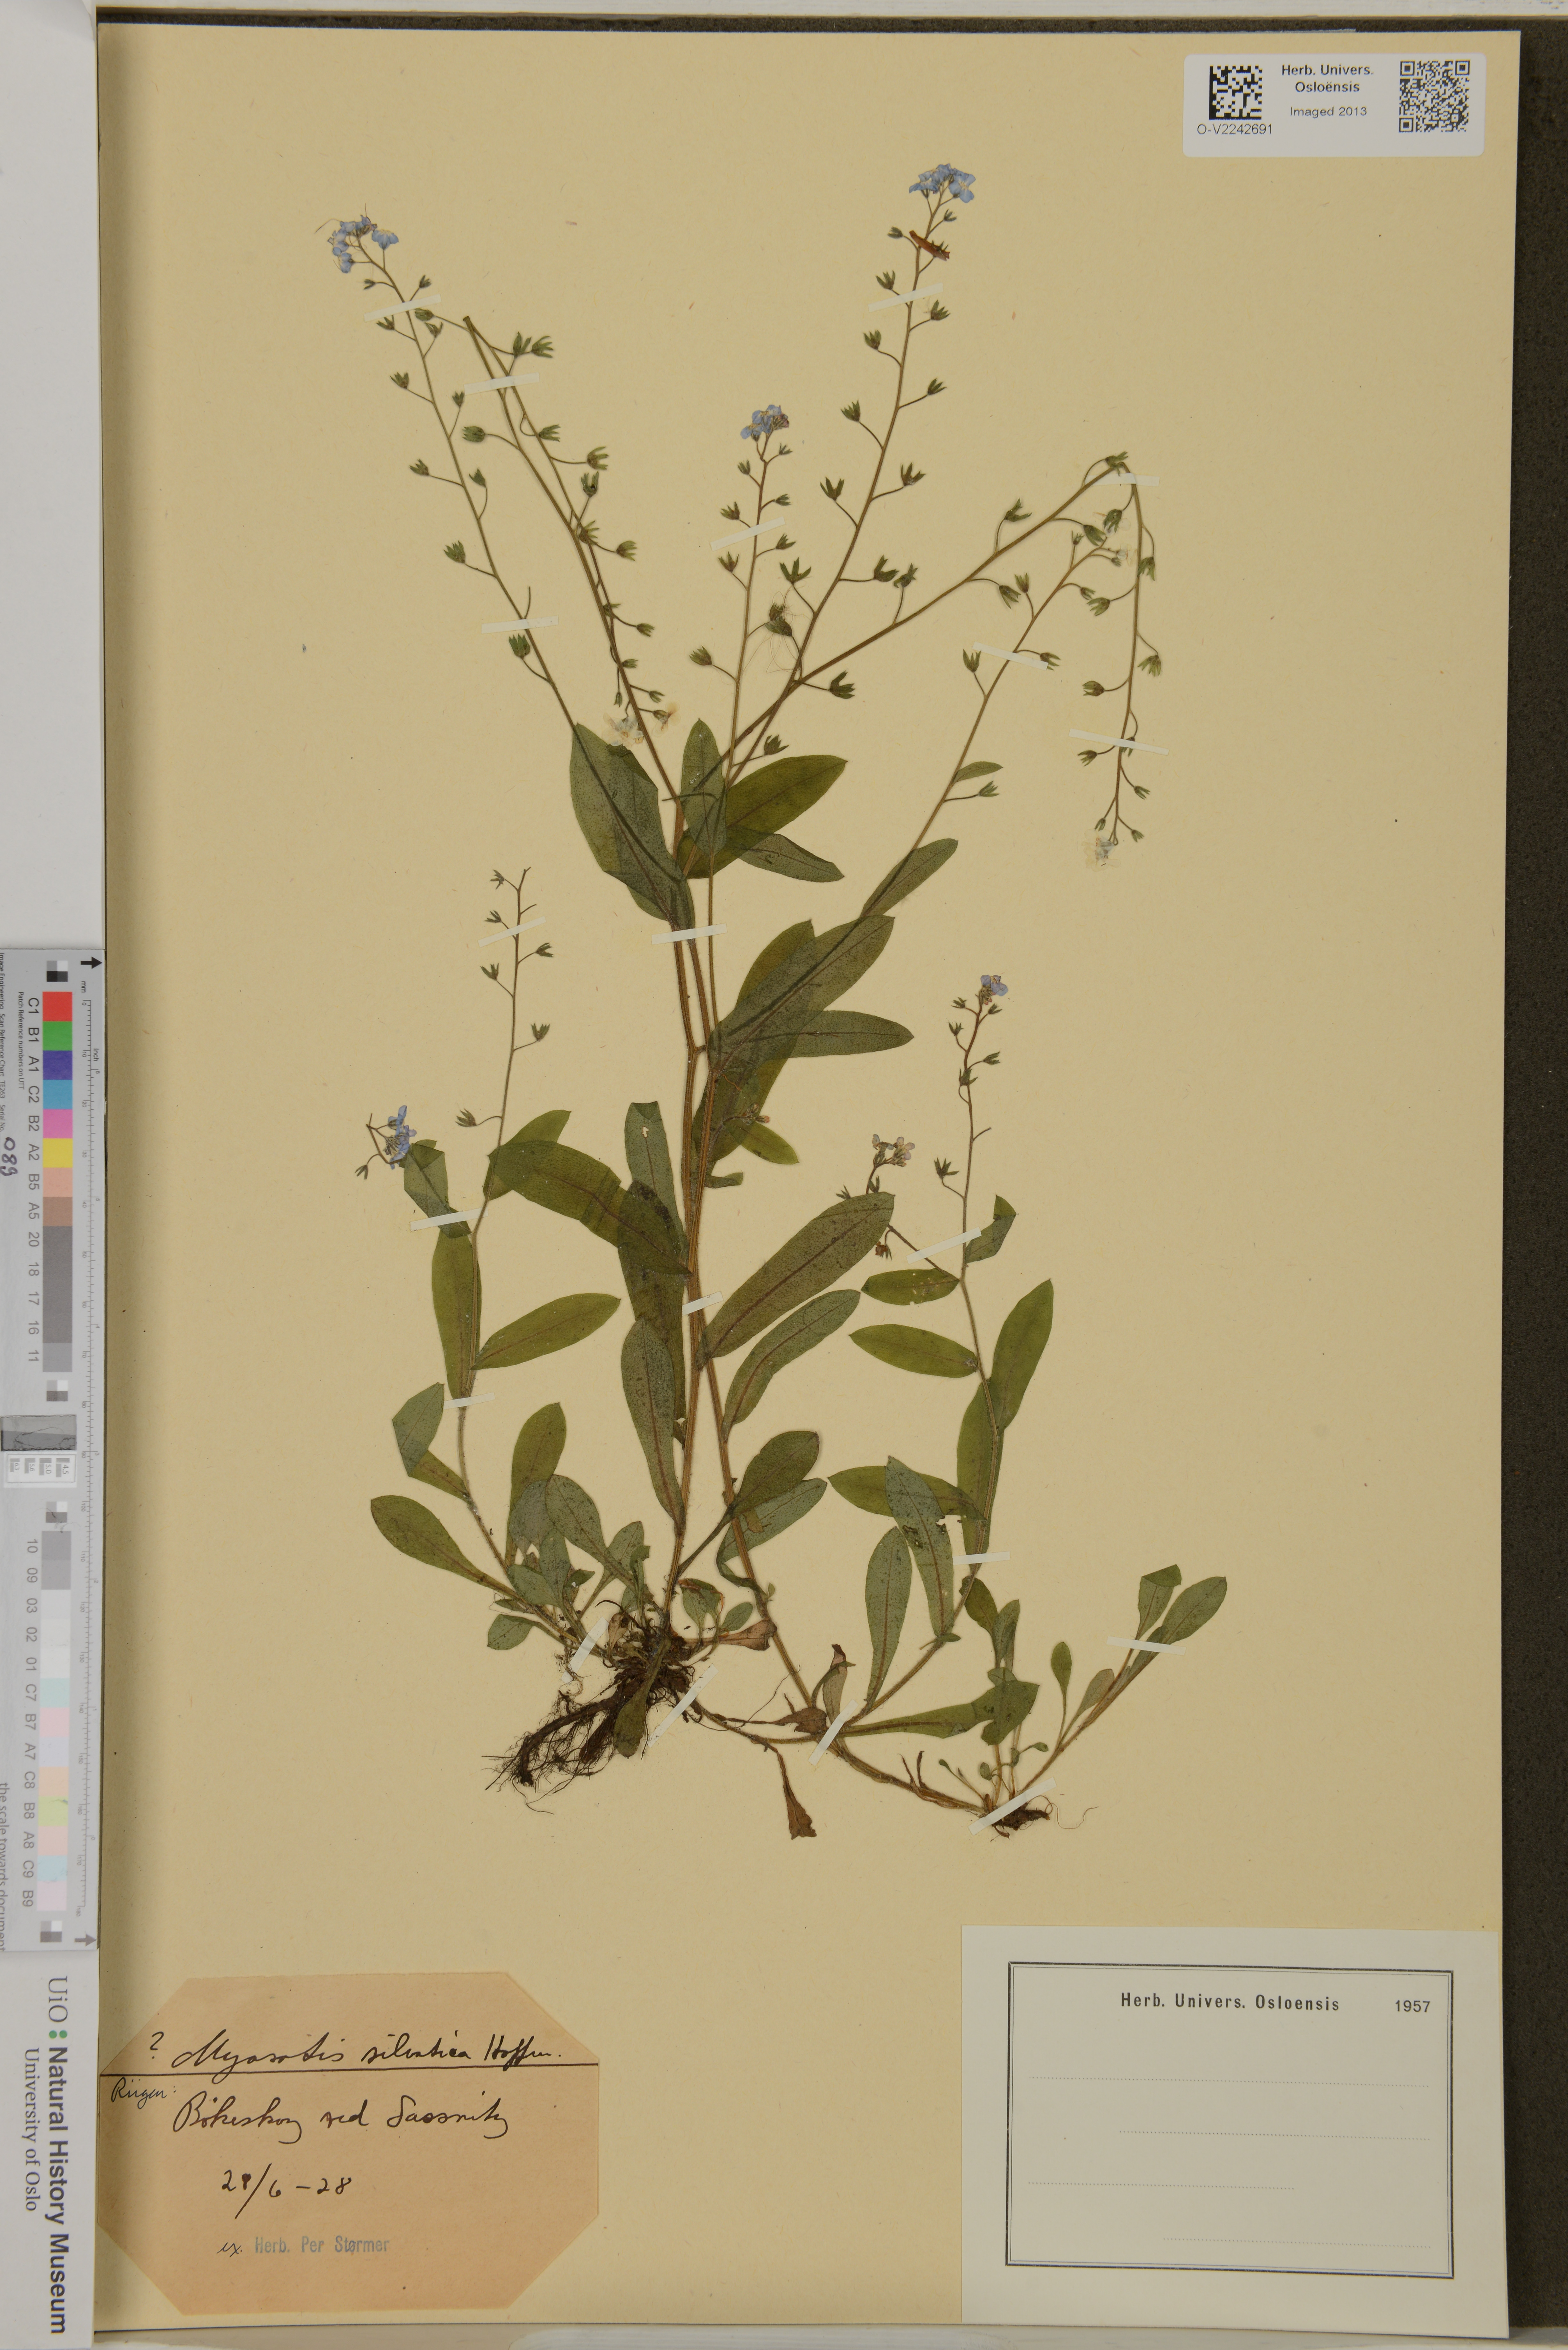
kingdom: Plantae
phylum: Tracheophyta
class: Magnoliopsida
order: Boraginales
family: Boraginaceae
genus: Myosotis
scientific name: Myosotis sylvatica
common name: Wood forget-me-not
